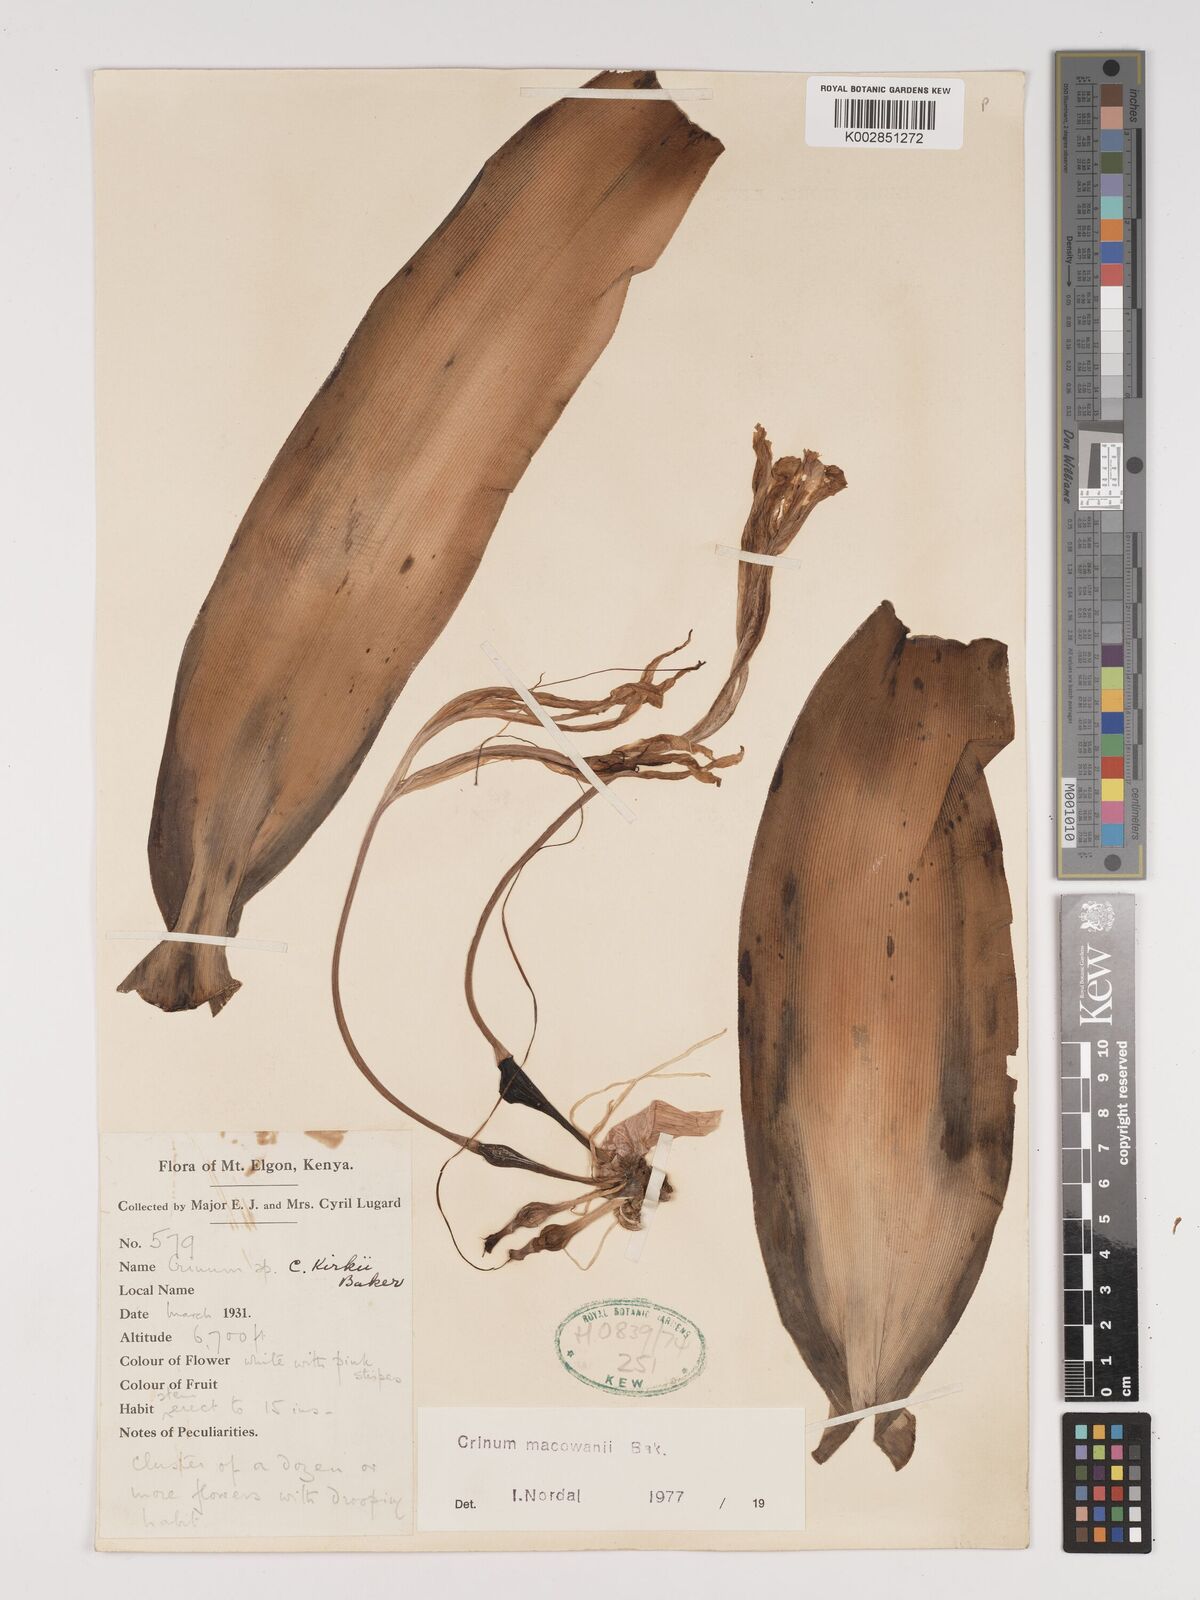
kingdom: Plantae
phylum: Tracheophyta
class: Liliopsida
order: Asparagales
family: Amaryllidaceae
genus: Crinum
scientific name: Crinum macowanii
